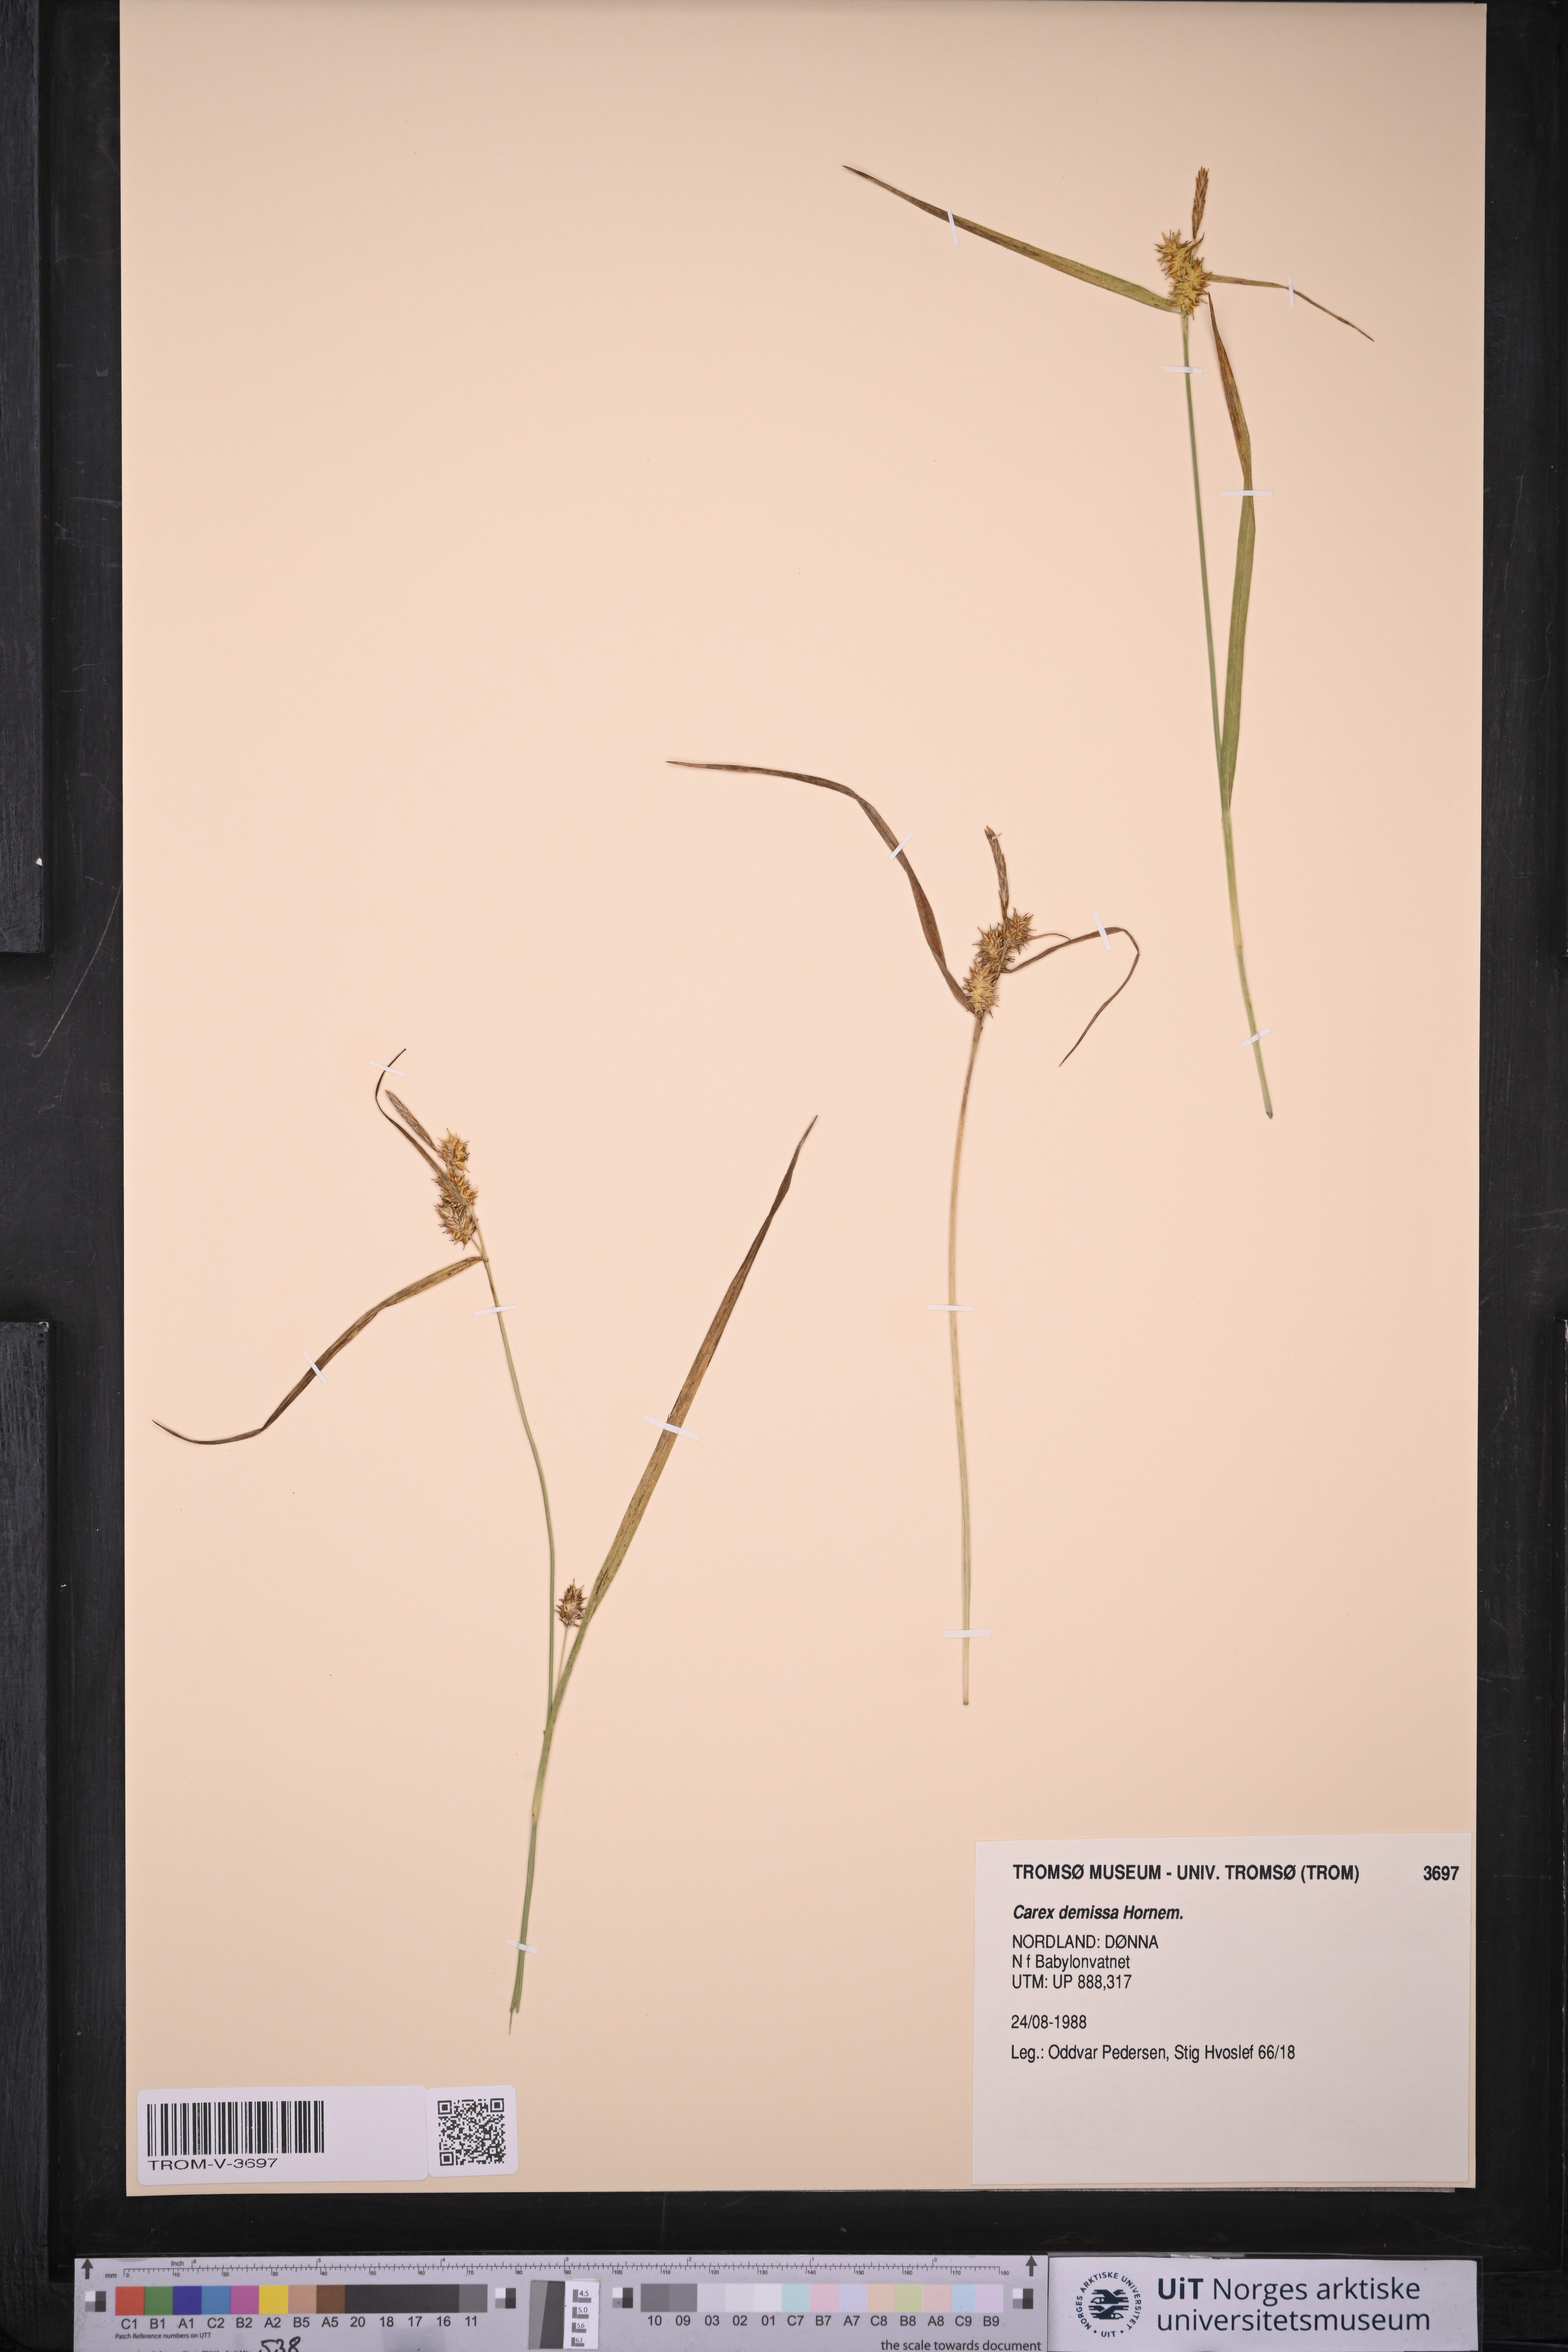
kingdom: Plantae
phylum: Tracheophyta
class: Liliopsida
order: Poales
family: Cyperaceae
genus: Carex
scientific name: Carex demissa
